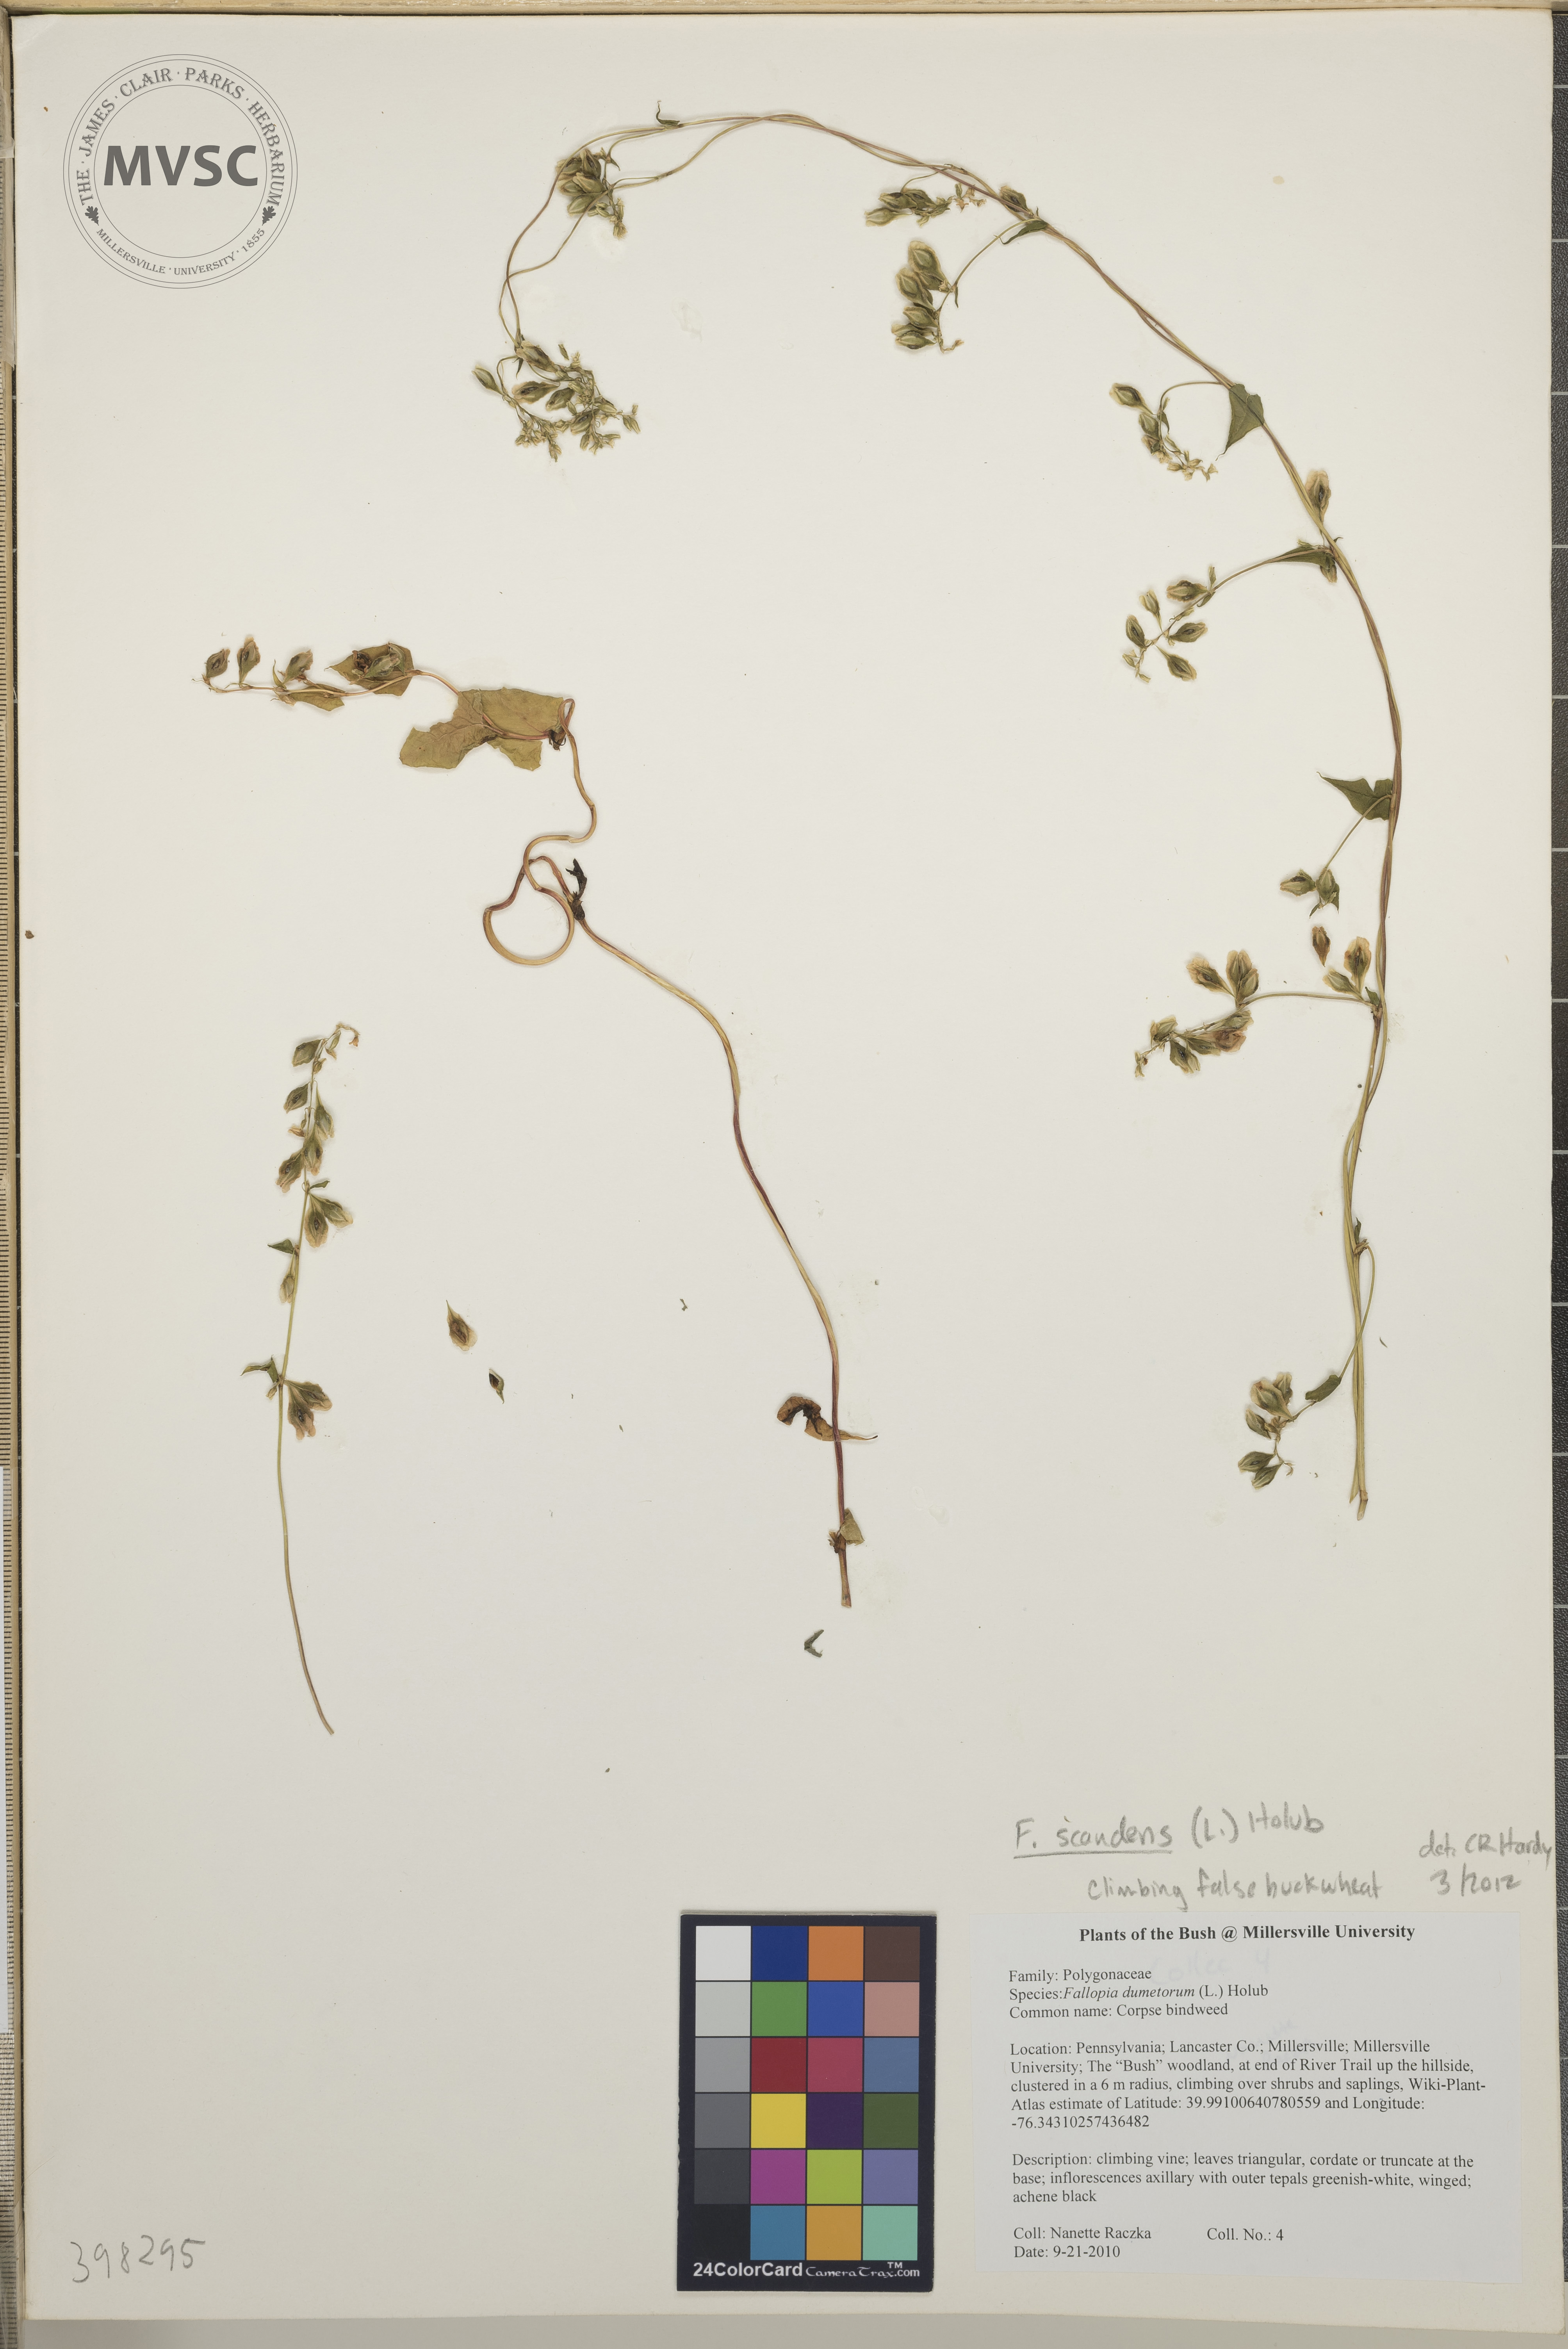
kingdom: Plantae
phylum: Tracheophyta
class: Magnoliopsida
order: Caryophyllales
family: Polygonaceae
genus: Fallopia
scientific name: Fallopia scandens
